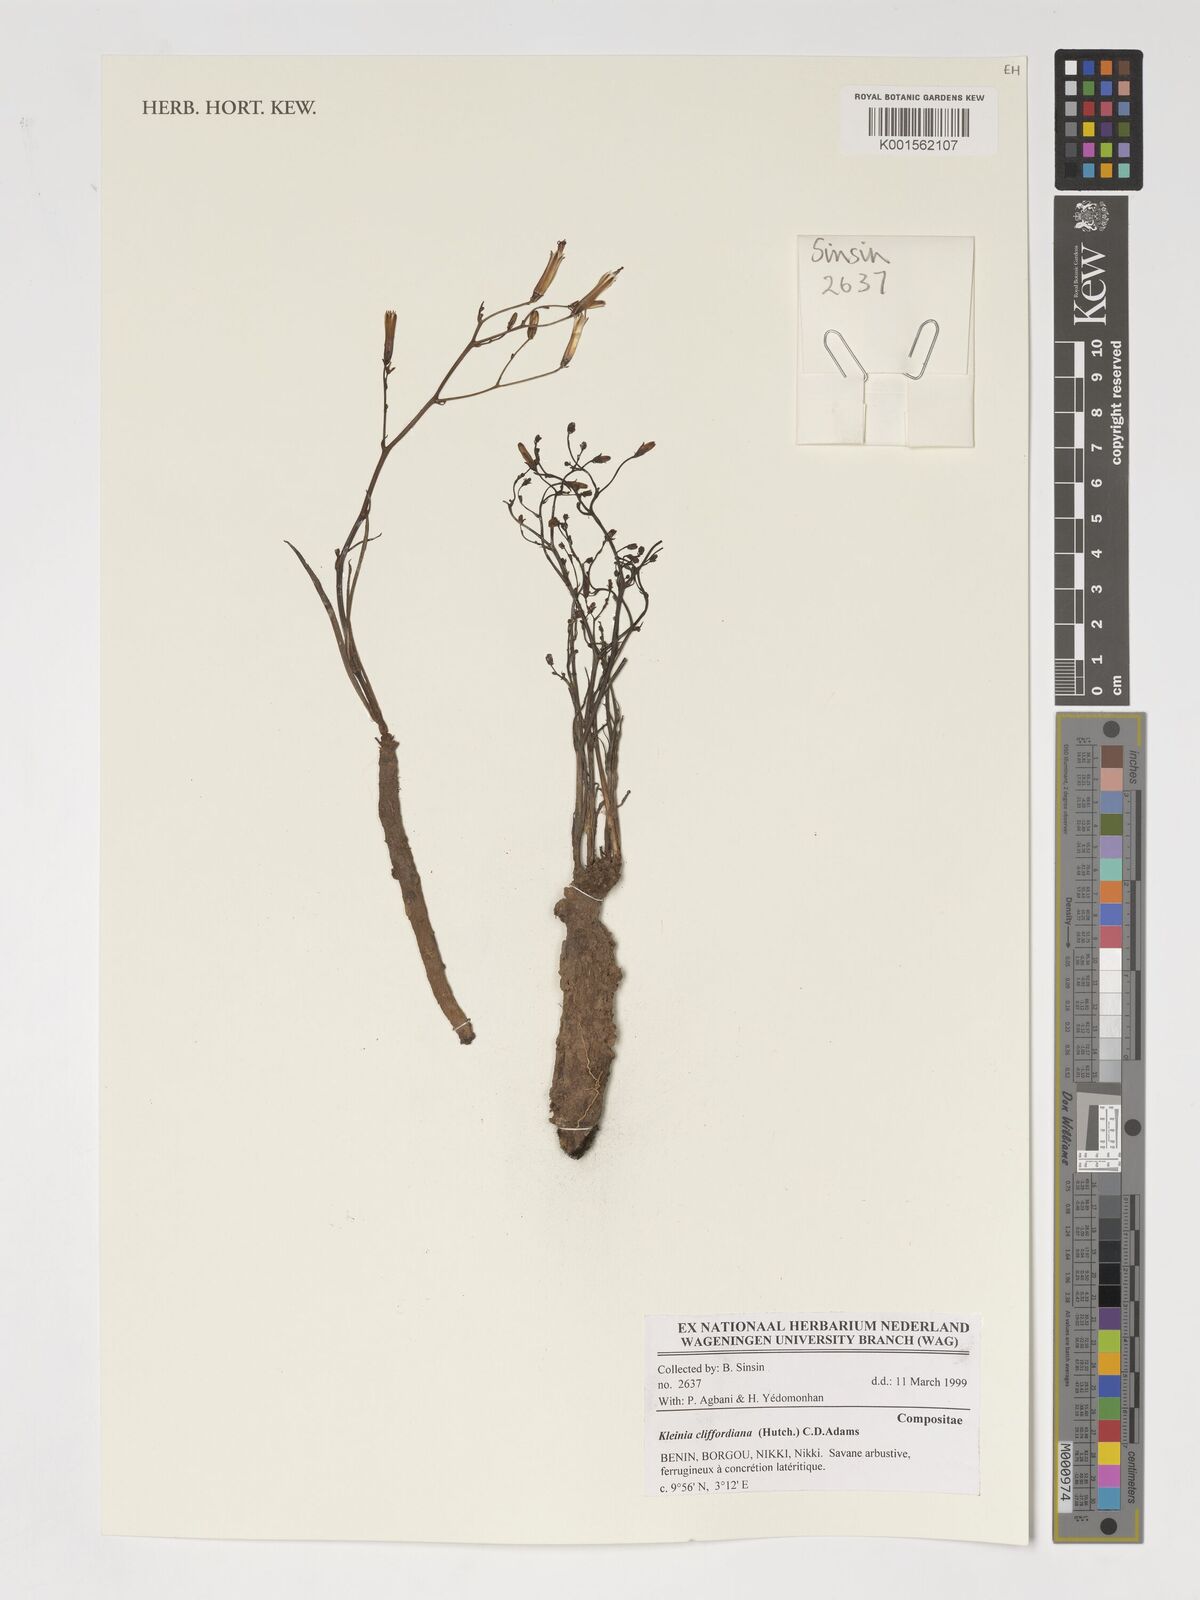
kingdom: Plantae
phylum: Tracheophyta
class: Magnoliopsida
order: Asterales
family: Asteraceae
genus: Kleinia
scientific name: Kleinia cliffordiana
